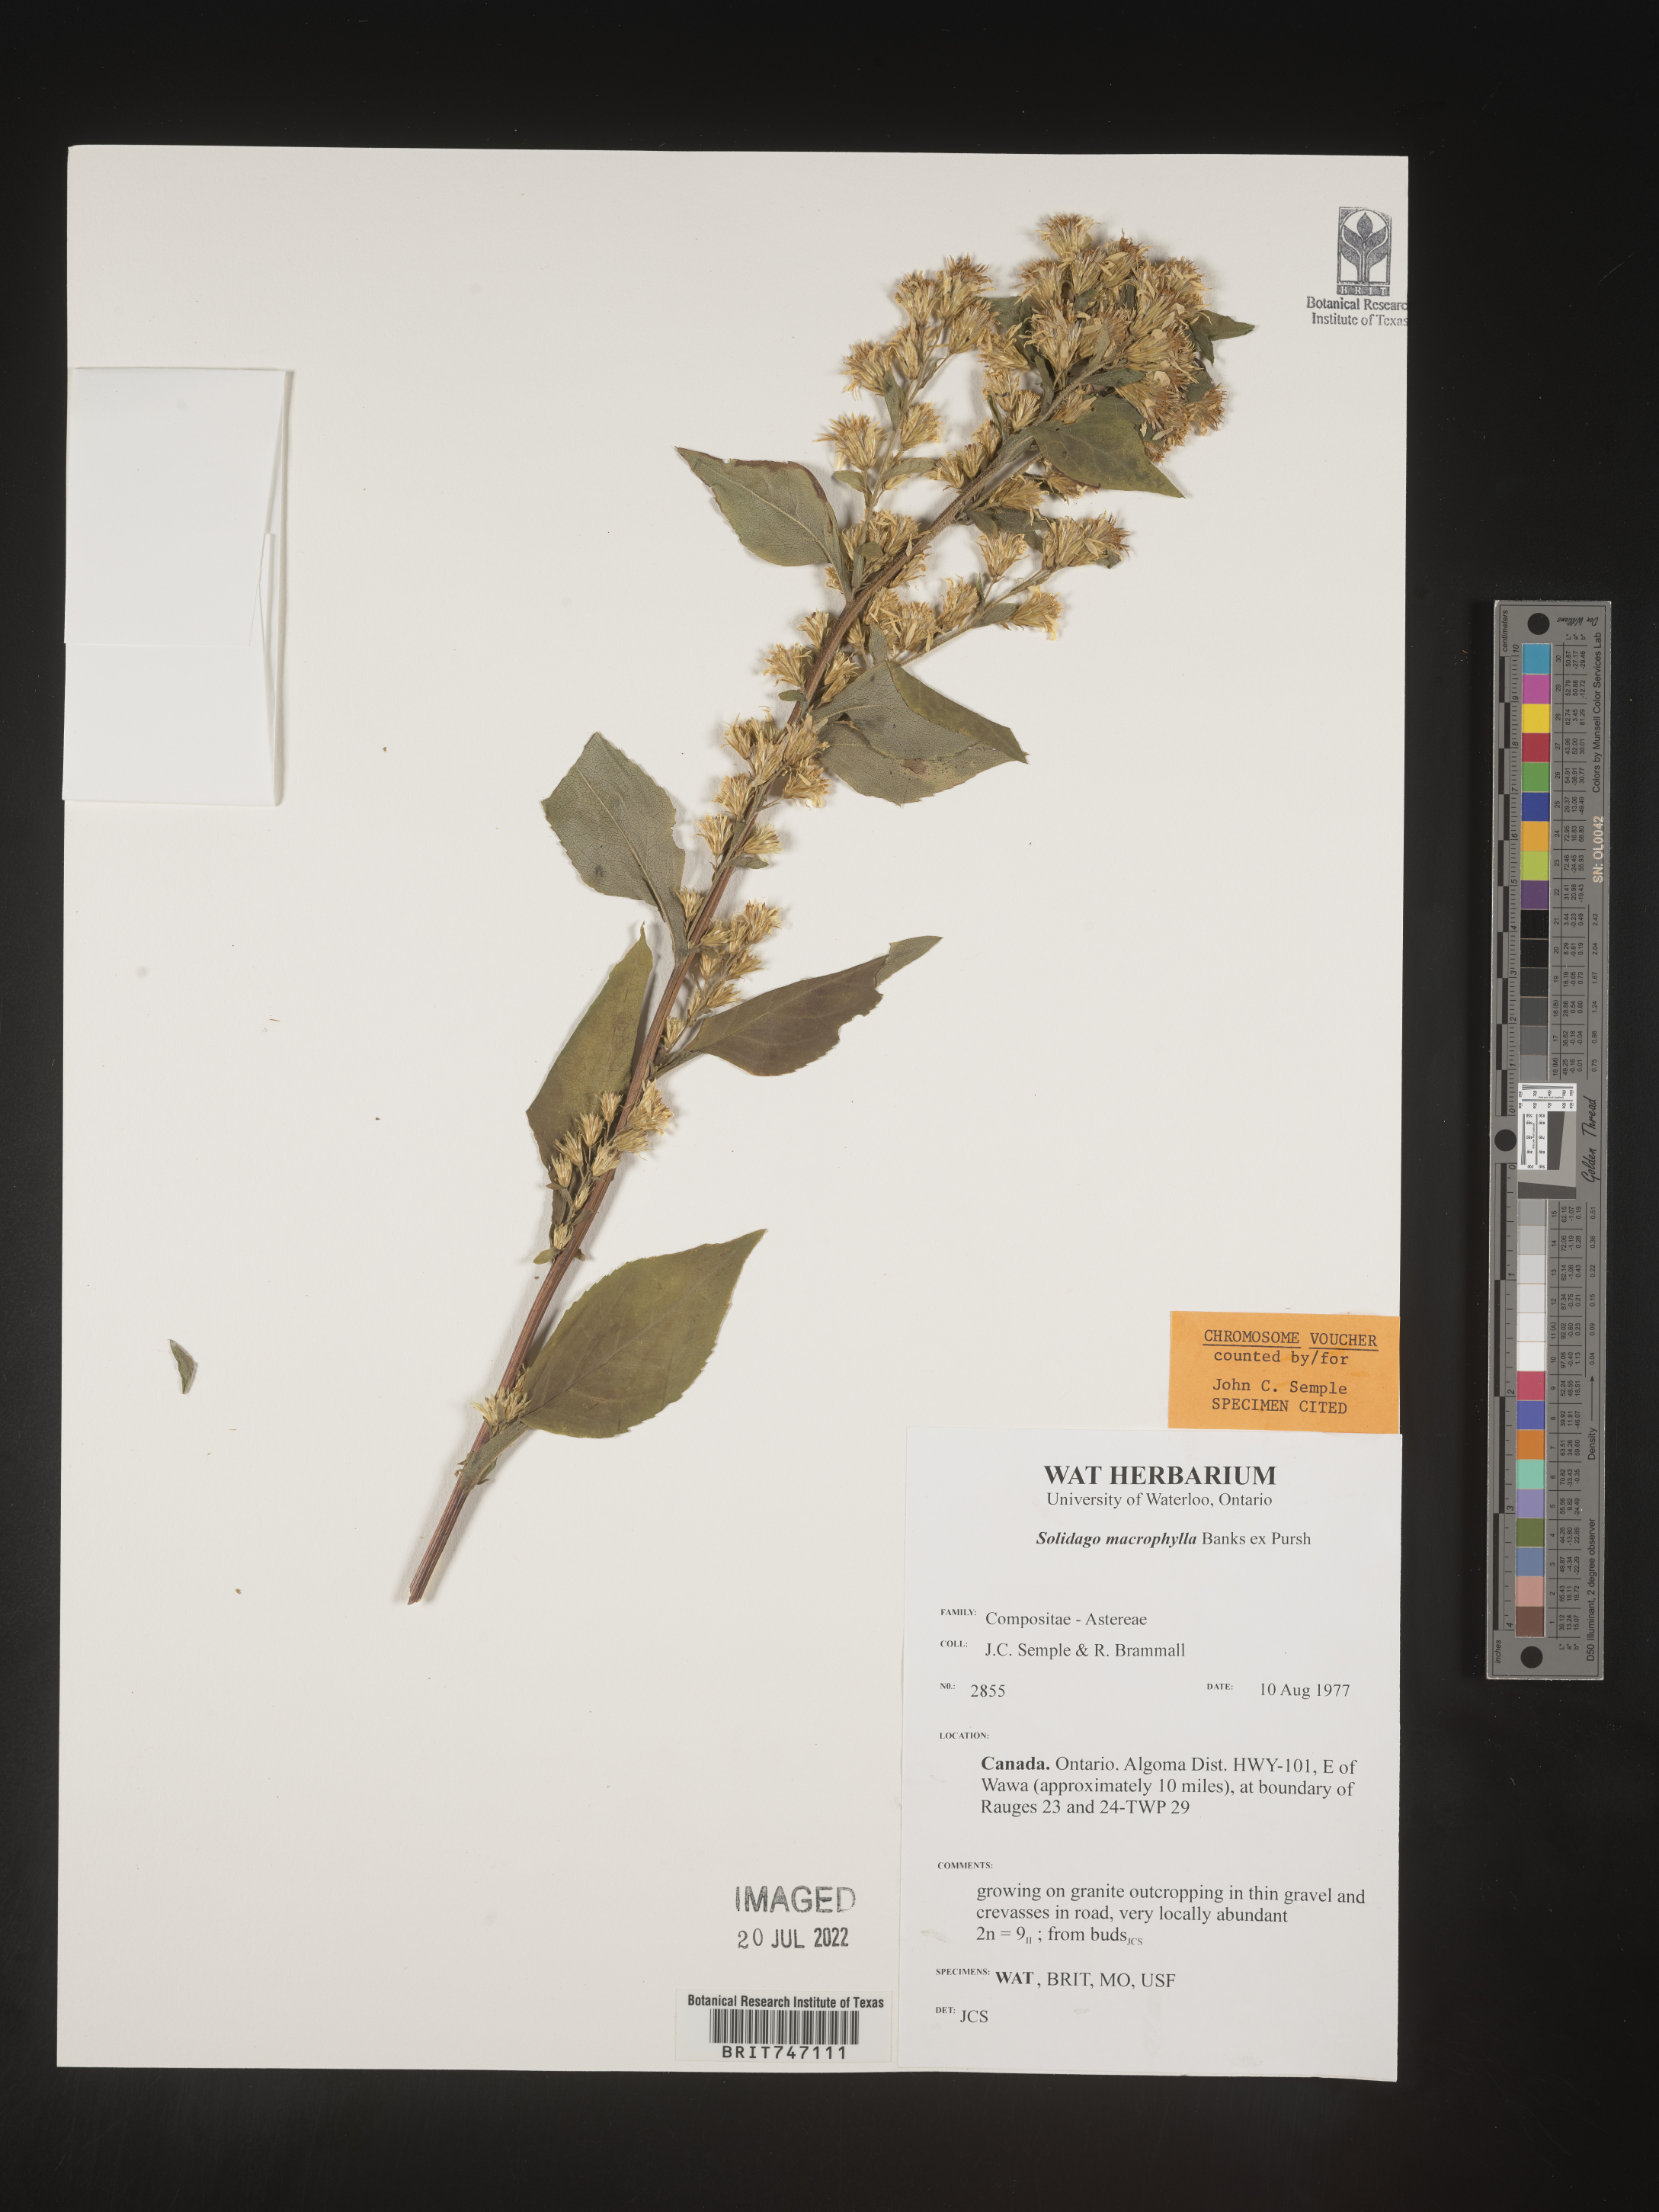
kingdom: Plantae
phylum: Tracheophyta
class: Magnoliopsida
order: Asterales
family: Asteraceae
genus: Solidago
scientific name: Solidago macrophylla
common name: Large-leaved goldenrod
